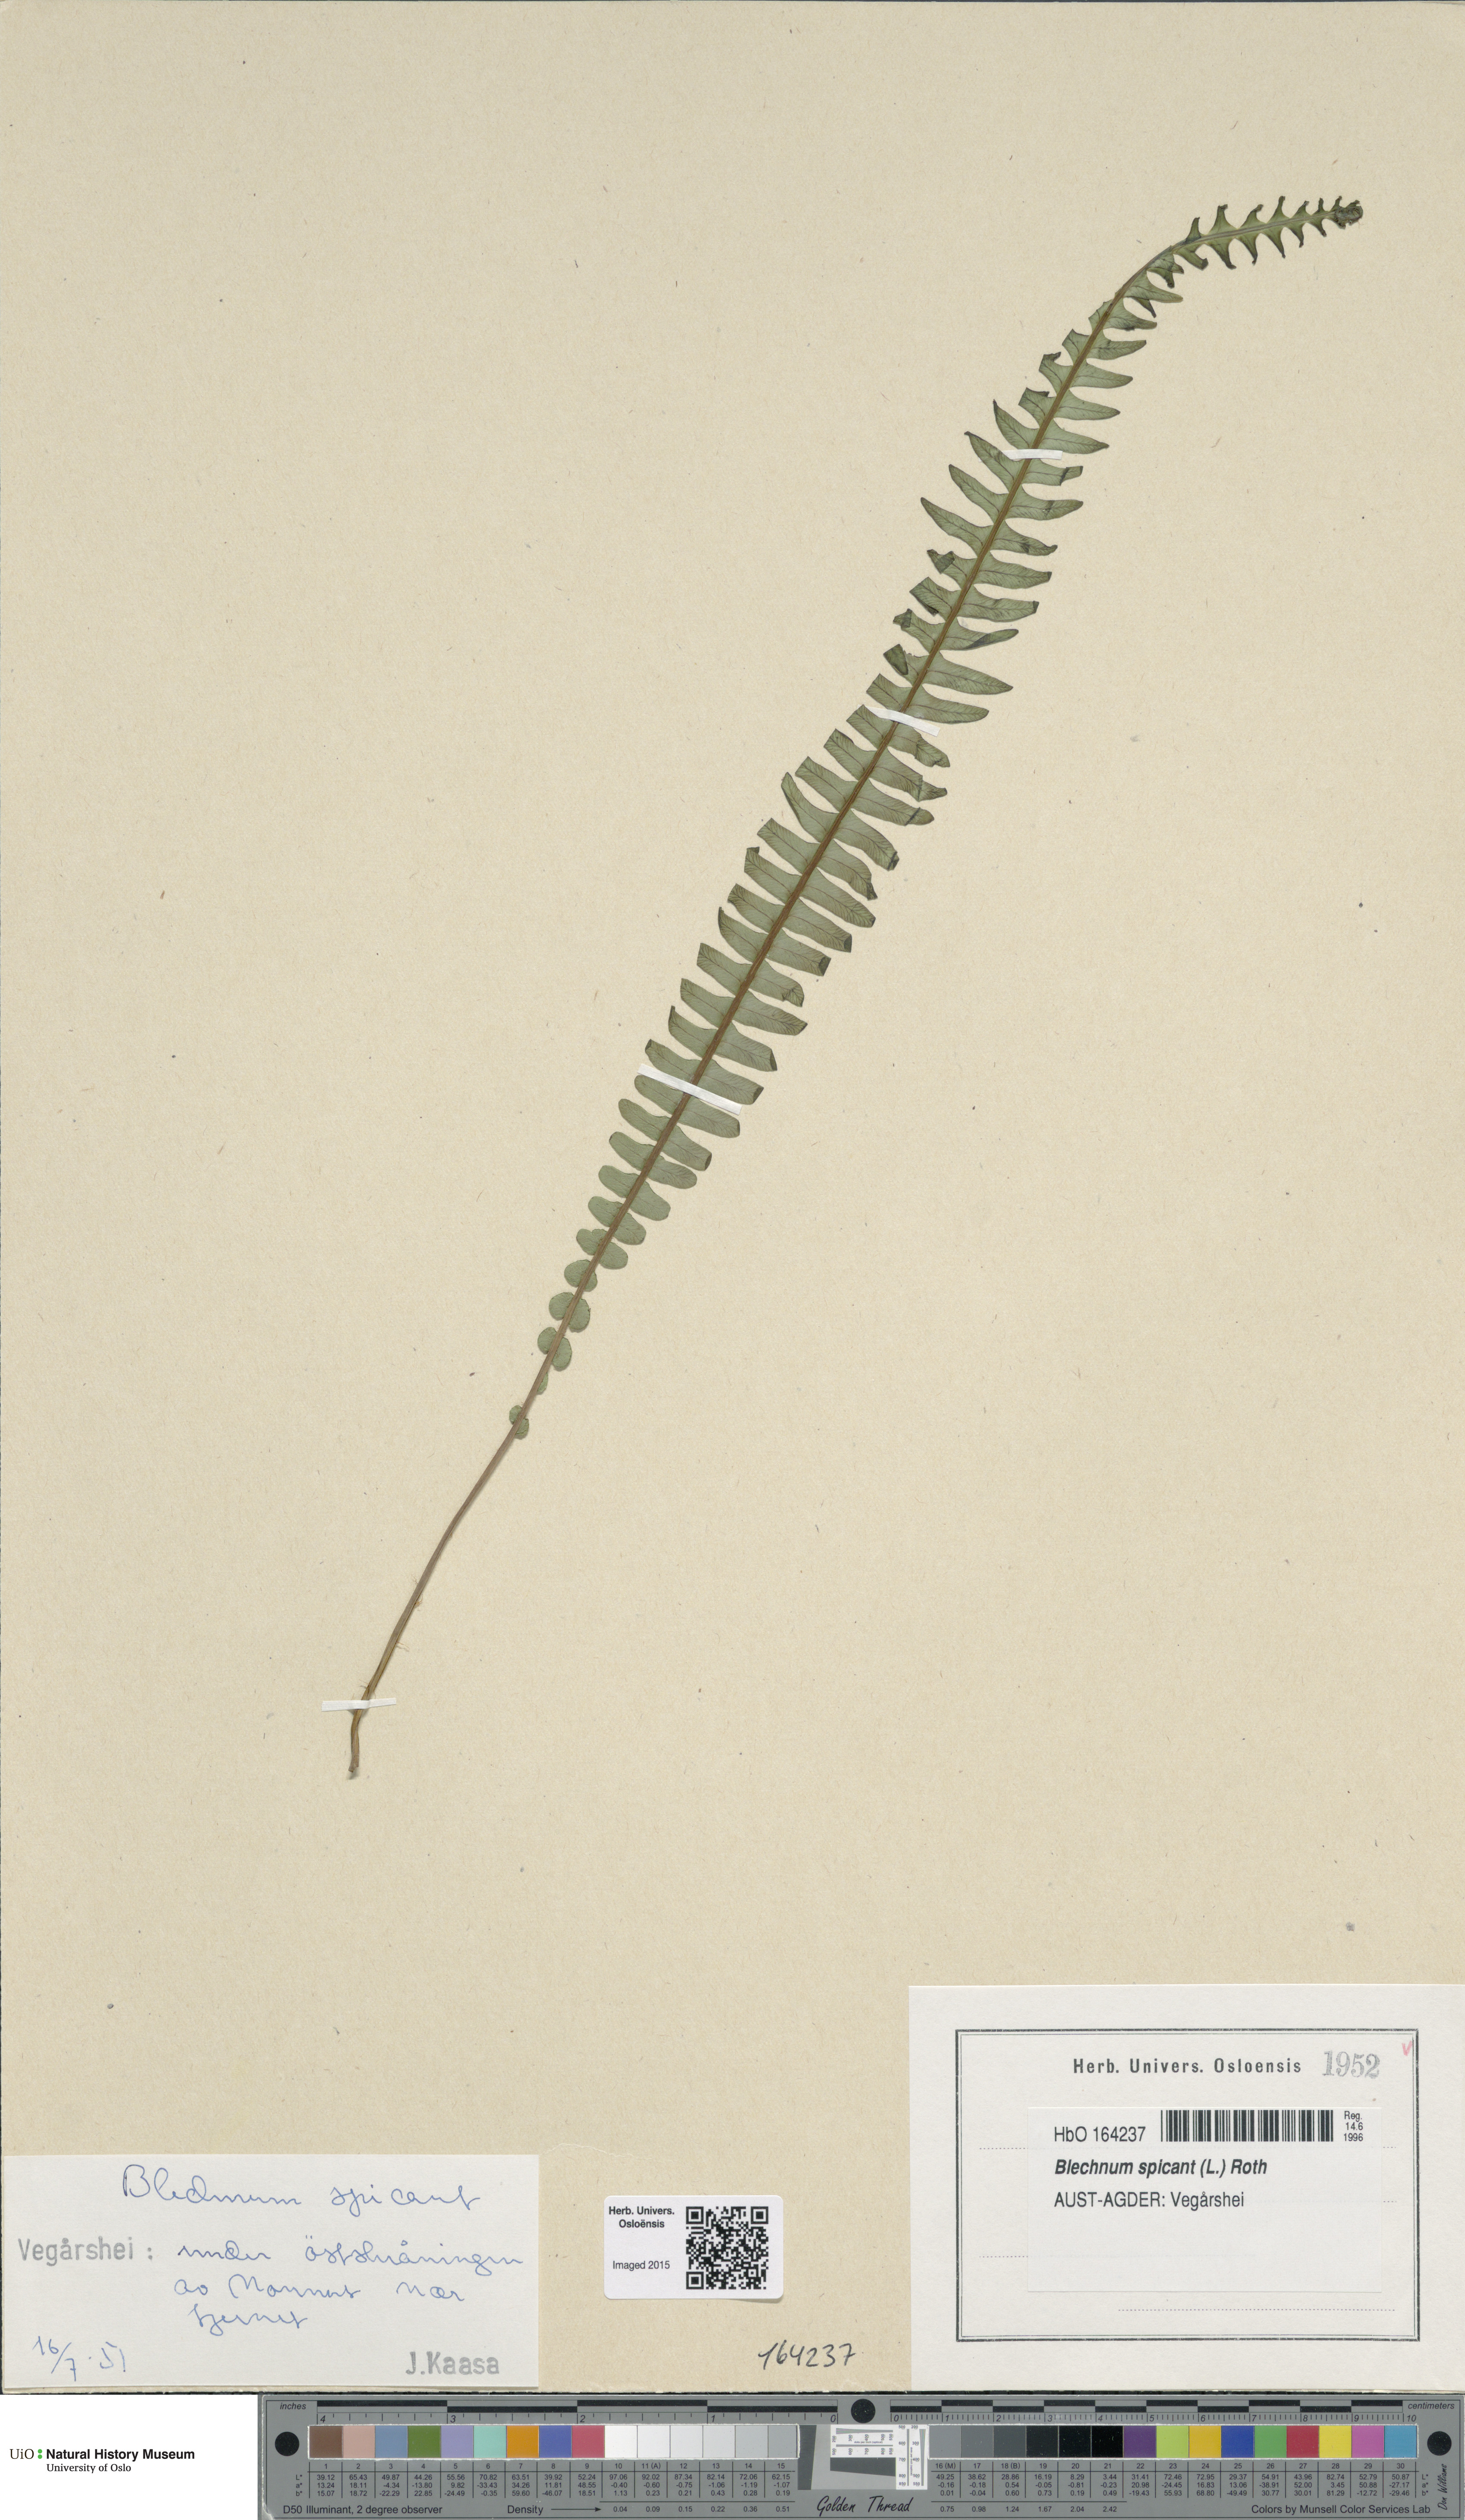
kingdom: Plantae
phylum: Tracheophyta
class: Polypodiopsida
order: Polypodiales
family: Blechnaceae
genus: Struthiopteris
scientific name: Struthiopteris spicant
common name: Deer fern
